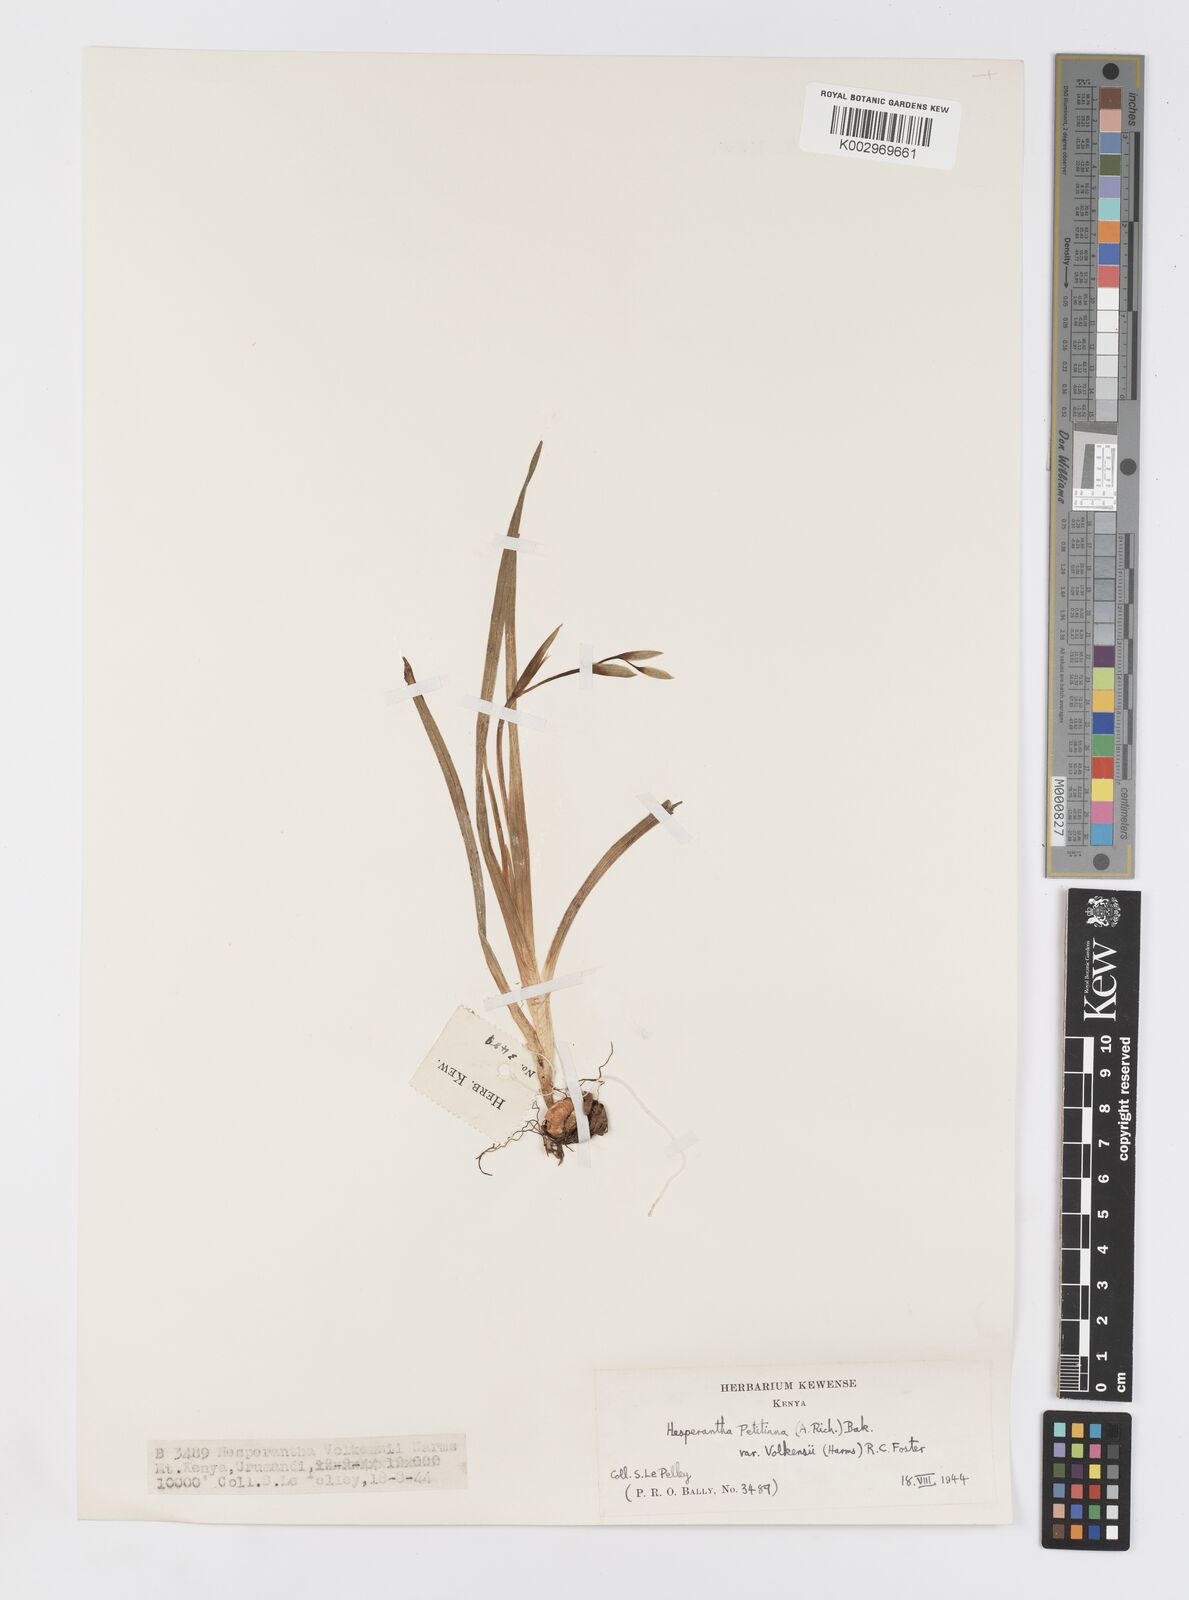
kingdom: Plantae
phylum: Tracheophyta
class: Liliopsida
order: Asparagales
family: Iridaceae
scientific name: Iridaceae
